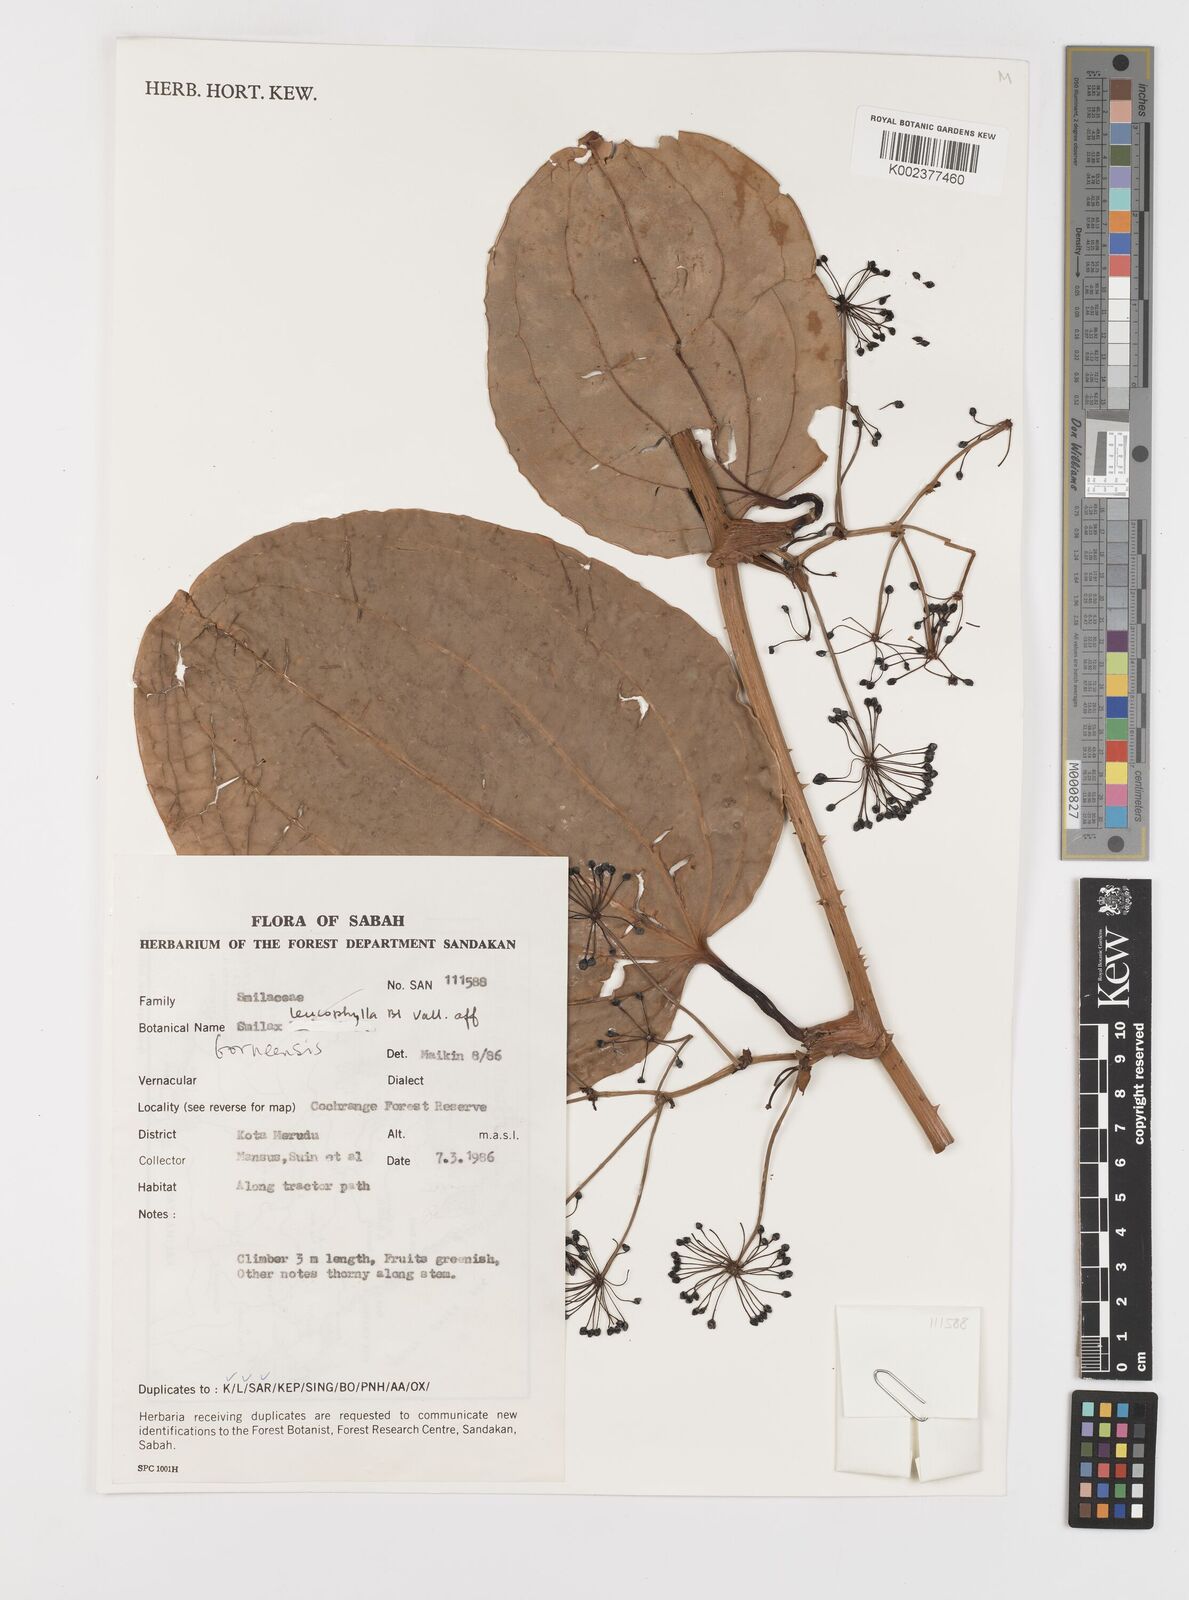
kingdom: Plantae
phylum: Tracheophyta
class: Liliopsida
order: Liliales
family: Smilacaceae
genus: Smilax
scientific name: Smilax borneensis
